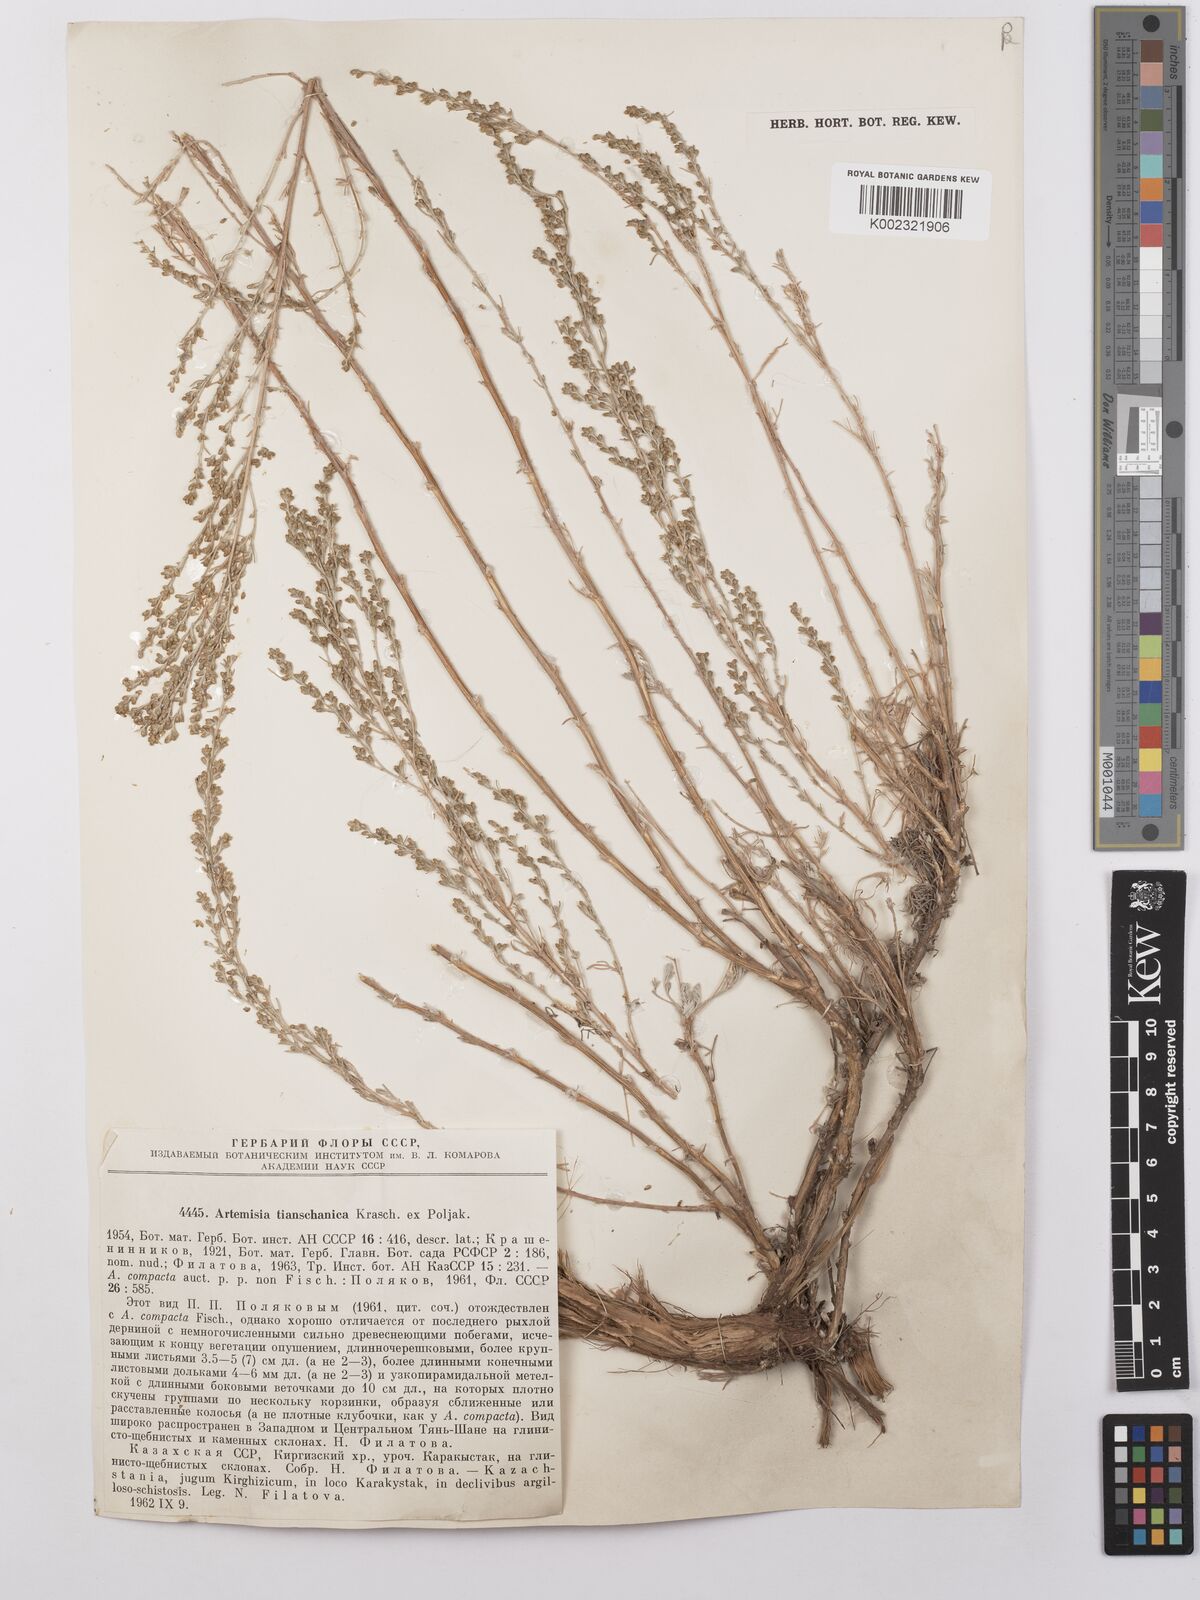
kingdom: Plantae
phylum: Tracheophyta
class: Magnoliopsida
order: Asterales
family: Asteraceae
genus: Artemisia
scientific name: Artemisia tianschanica
